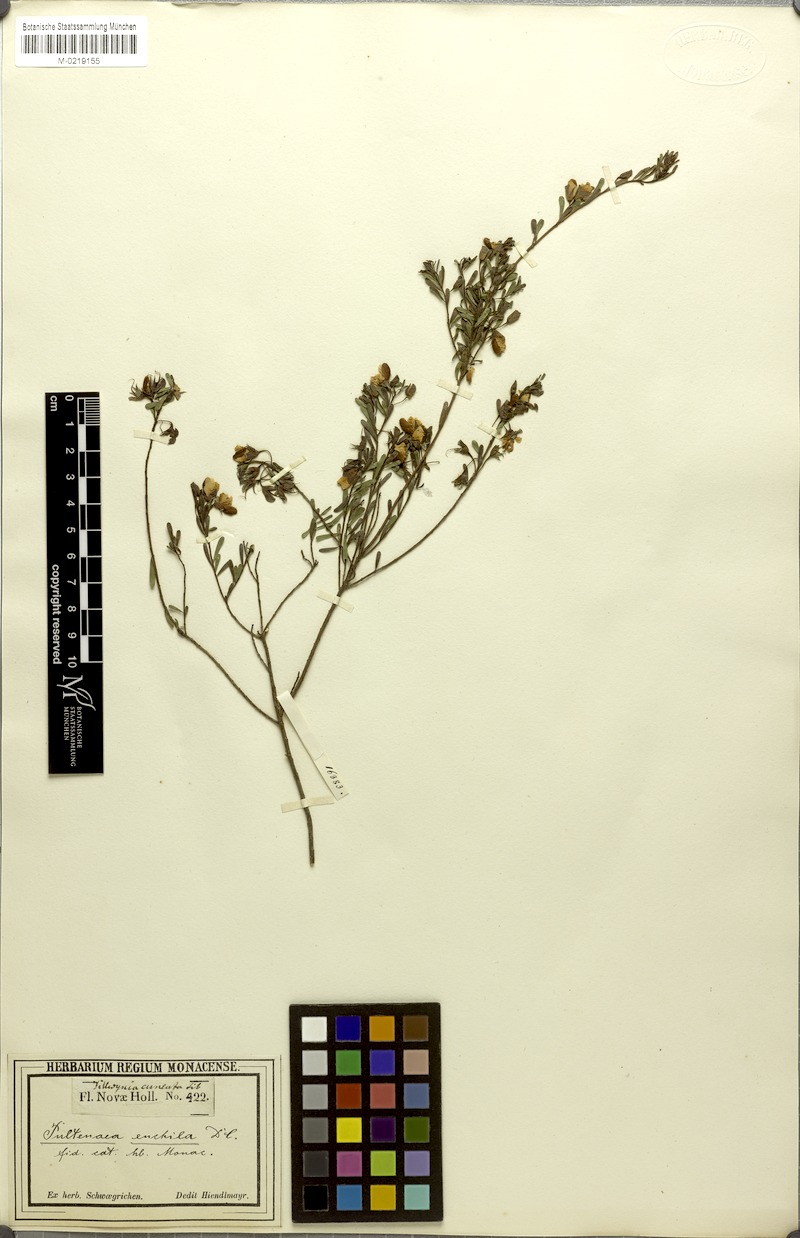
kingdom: Plantae
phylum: Tracheophyta
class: Magnoliopsida
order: Fabales
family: Fabaceae
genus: Pultenaea
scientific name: Pultenaea euchila
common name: Large-flower bush-pea
